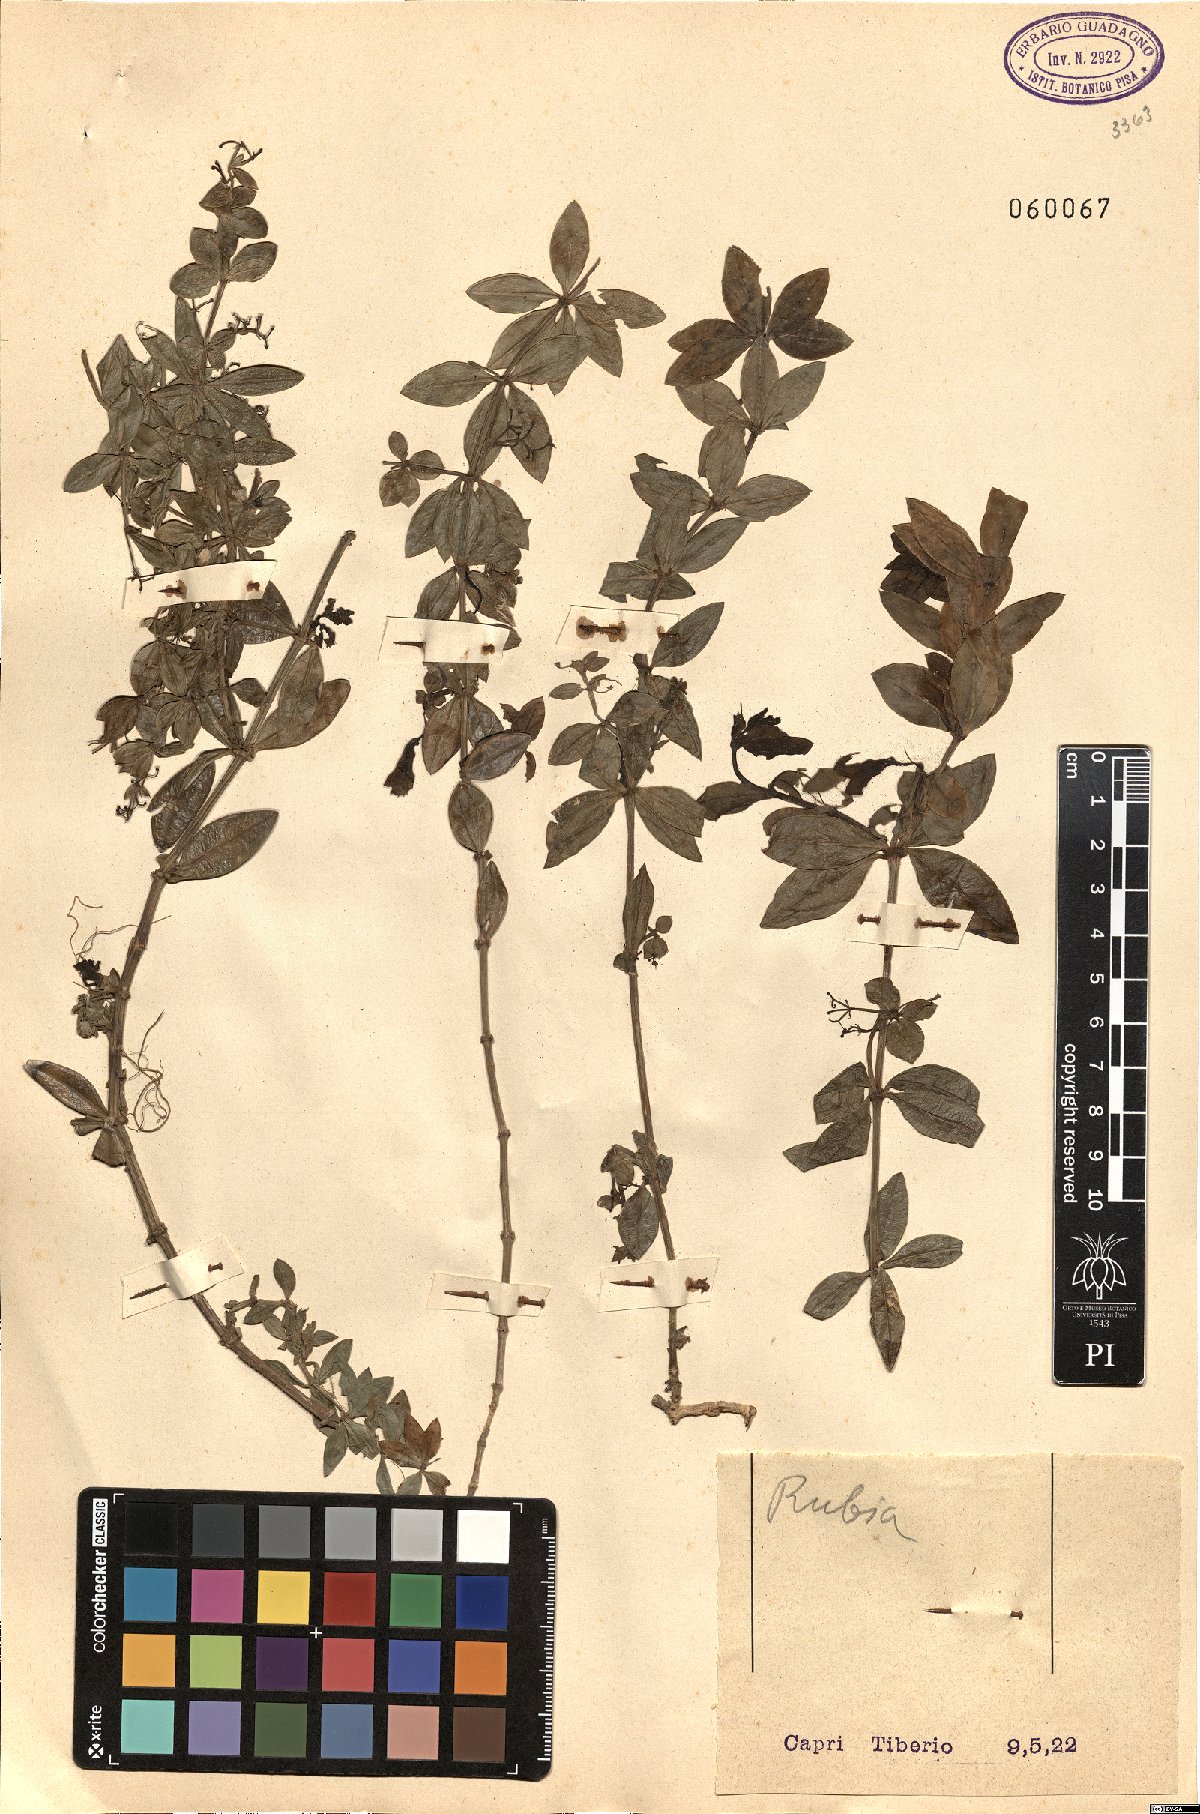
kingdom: Plantae
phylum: Tracheophyta
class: Magnoliopsida
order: Gentianales
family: Rubiaceae
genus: Rubia
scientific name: Rubia
